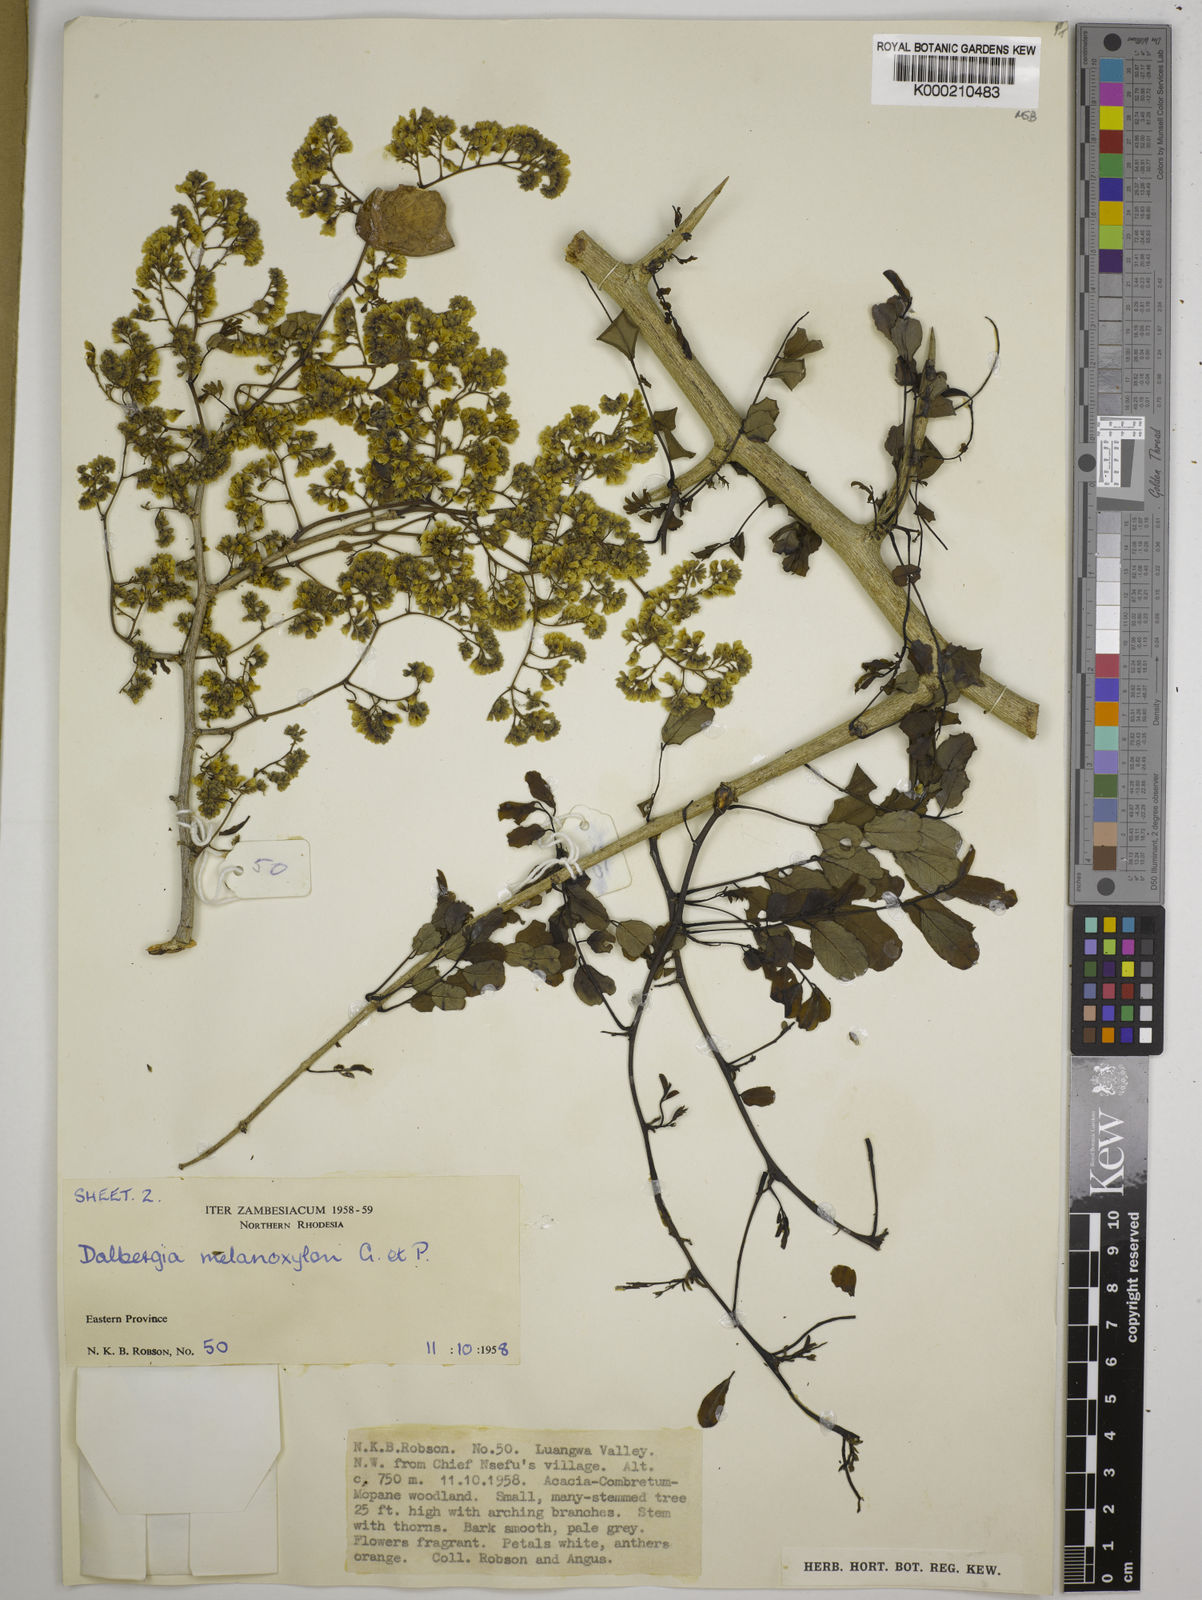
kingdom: Plantae
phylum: Tracheophyta
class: Magnoliopsida
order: Fabales
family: Fabaceae
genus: Dalbergia
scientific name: Dalbergia melanoxylon
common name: African blackwood
